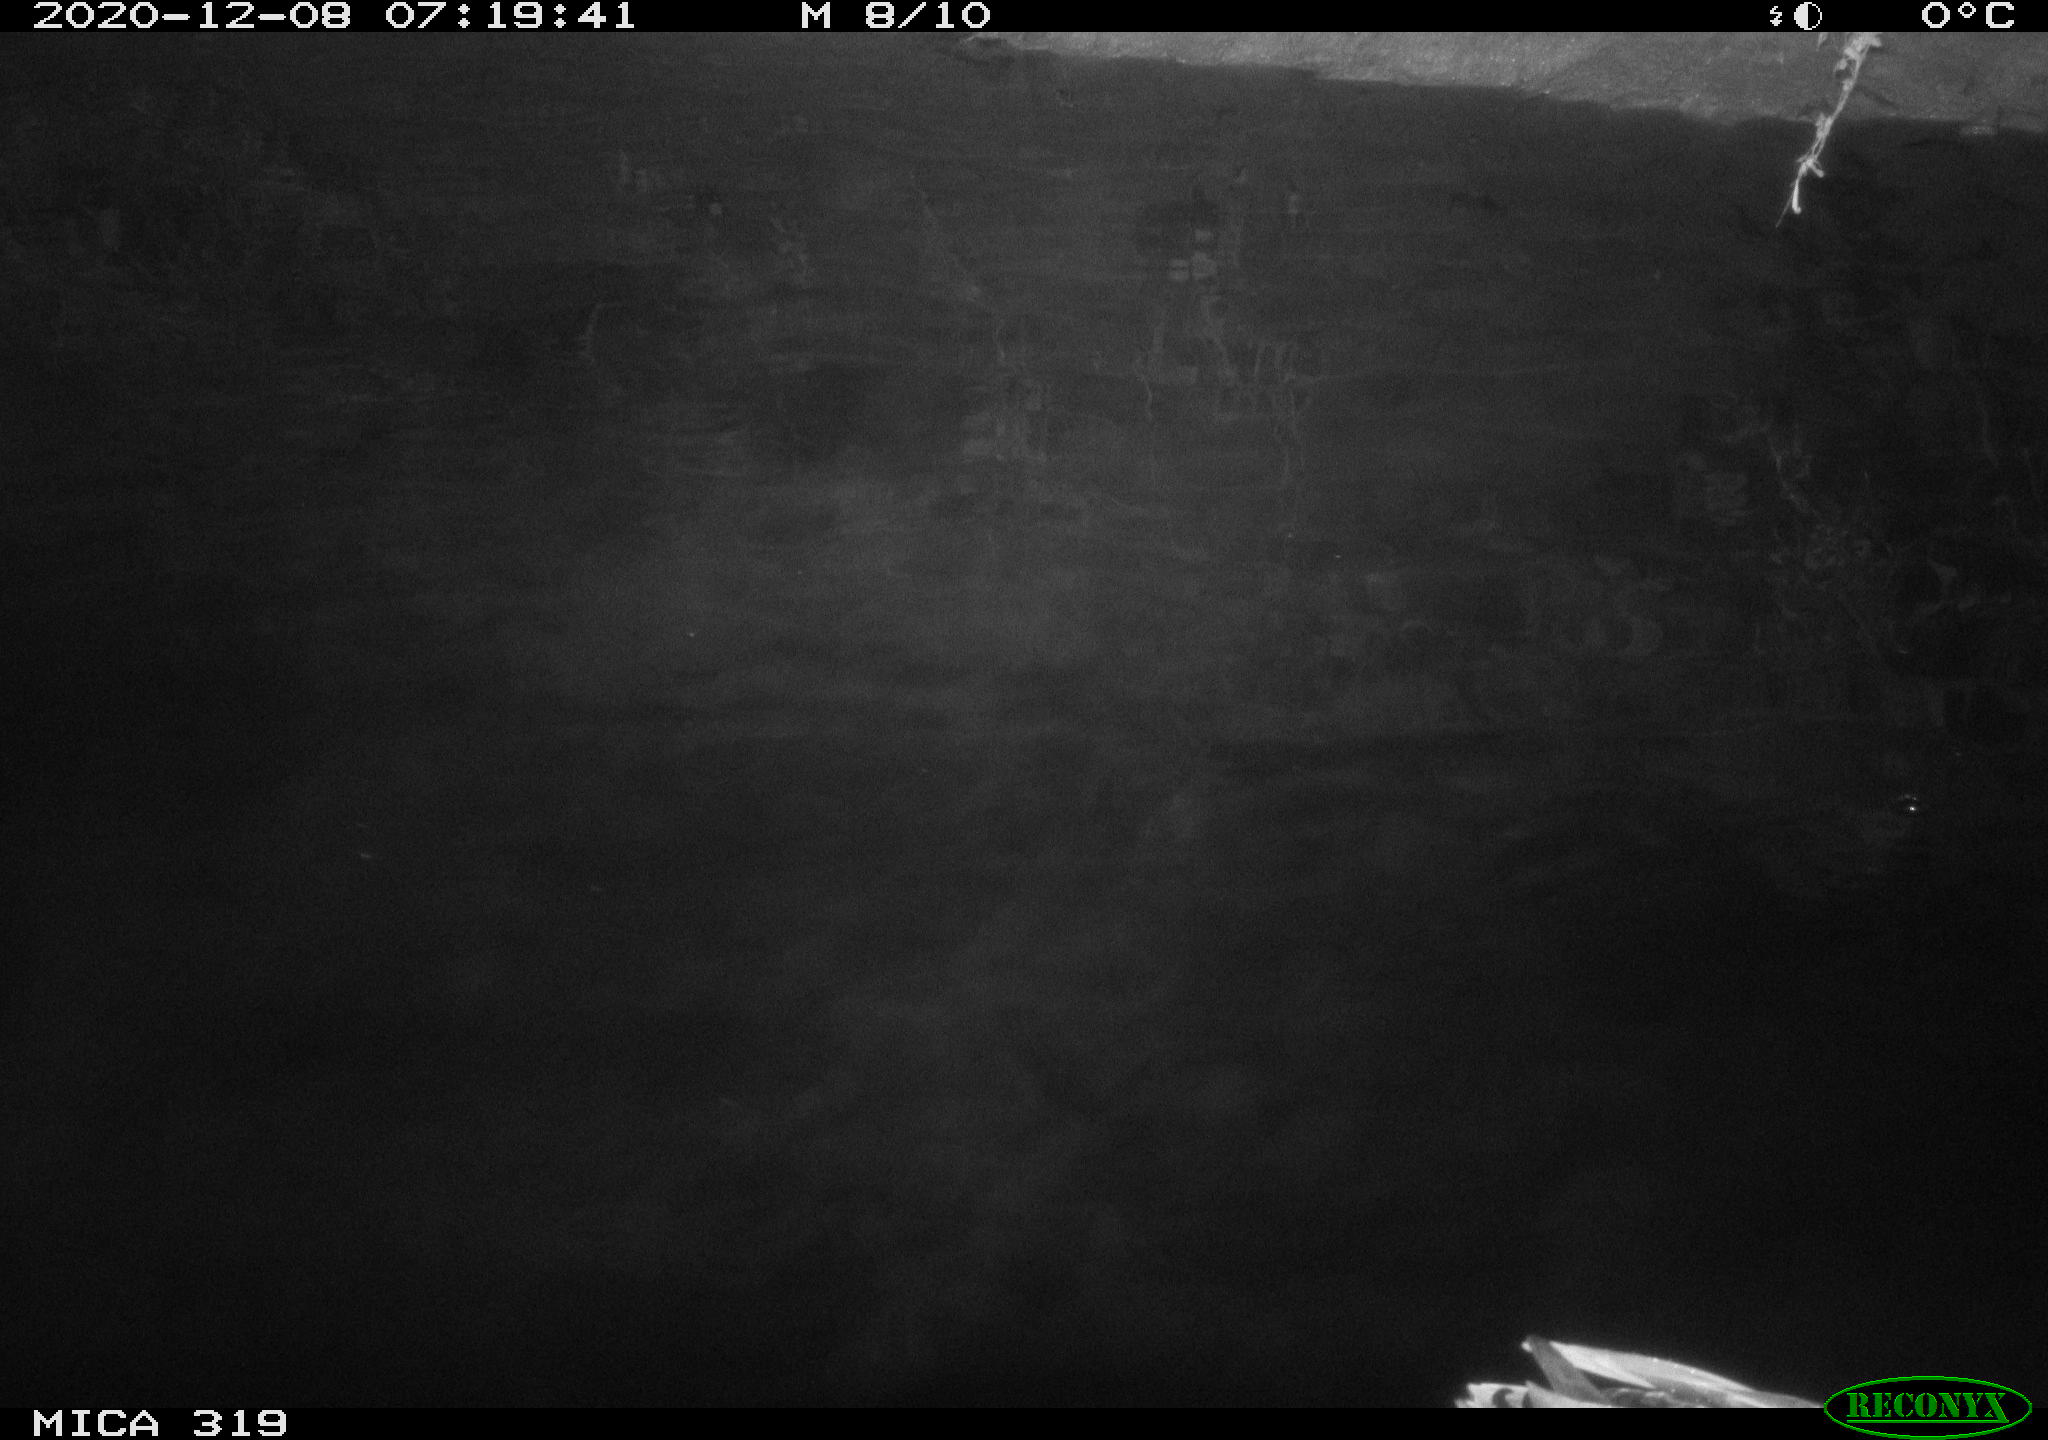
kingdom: Animalia
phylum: Chordata
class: Aves
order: Anseriformes
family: Anatidae
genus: Anas
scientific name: Anas platyrhynchos
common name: Mallard
